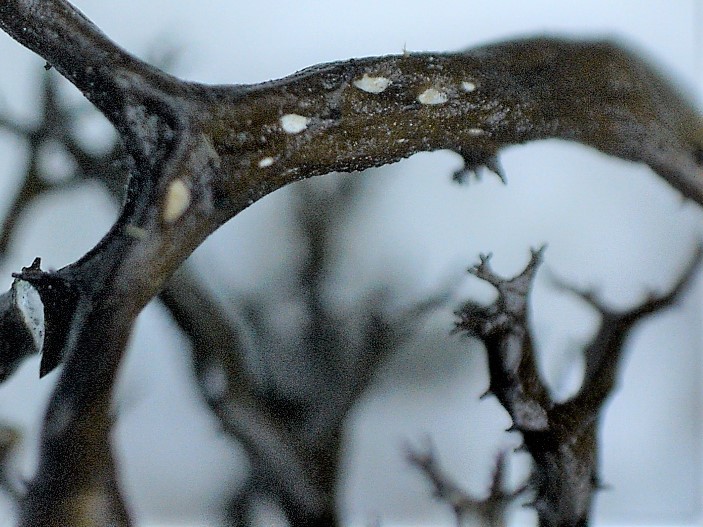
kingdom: Fungi
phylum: Ascomycota
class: Lecanoromycetes
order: Lecanorales
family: Parmeliaceae
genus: Cetraria
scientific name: Cetraria aculeata
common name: grubet tjørnelav
